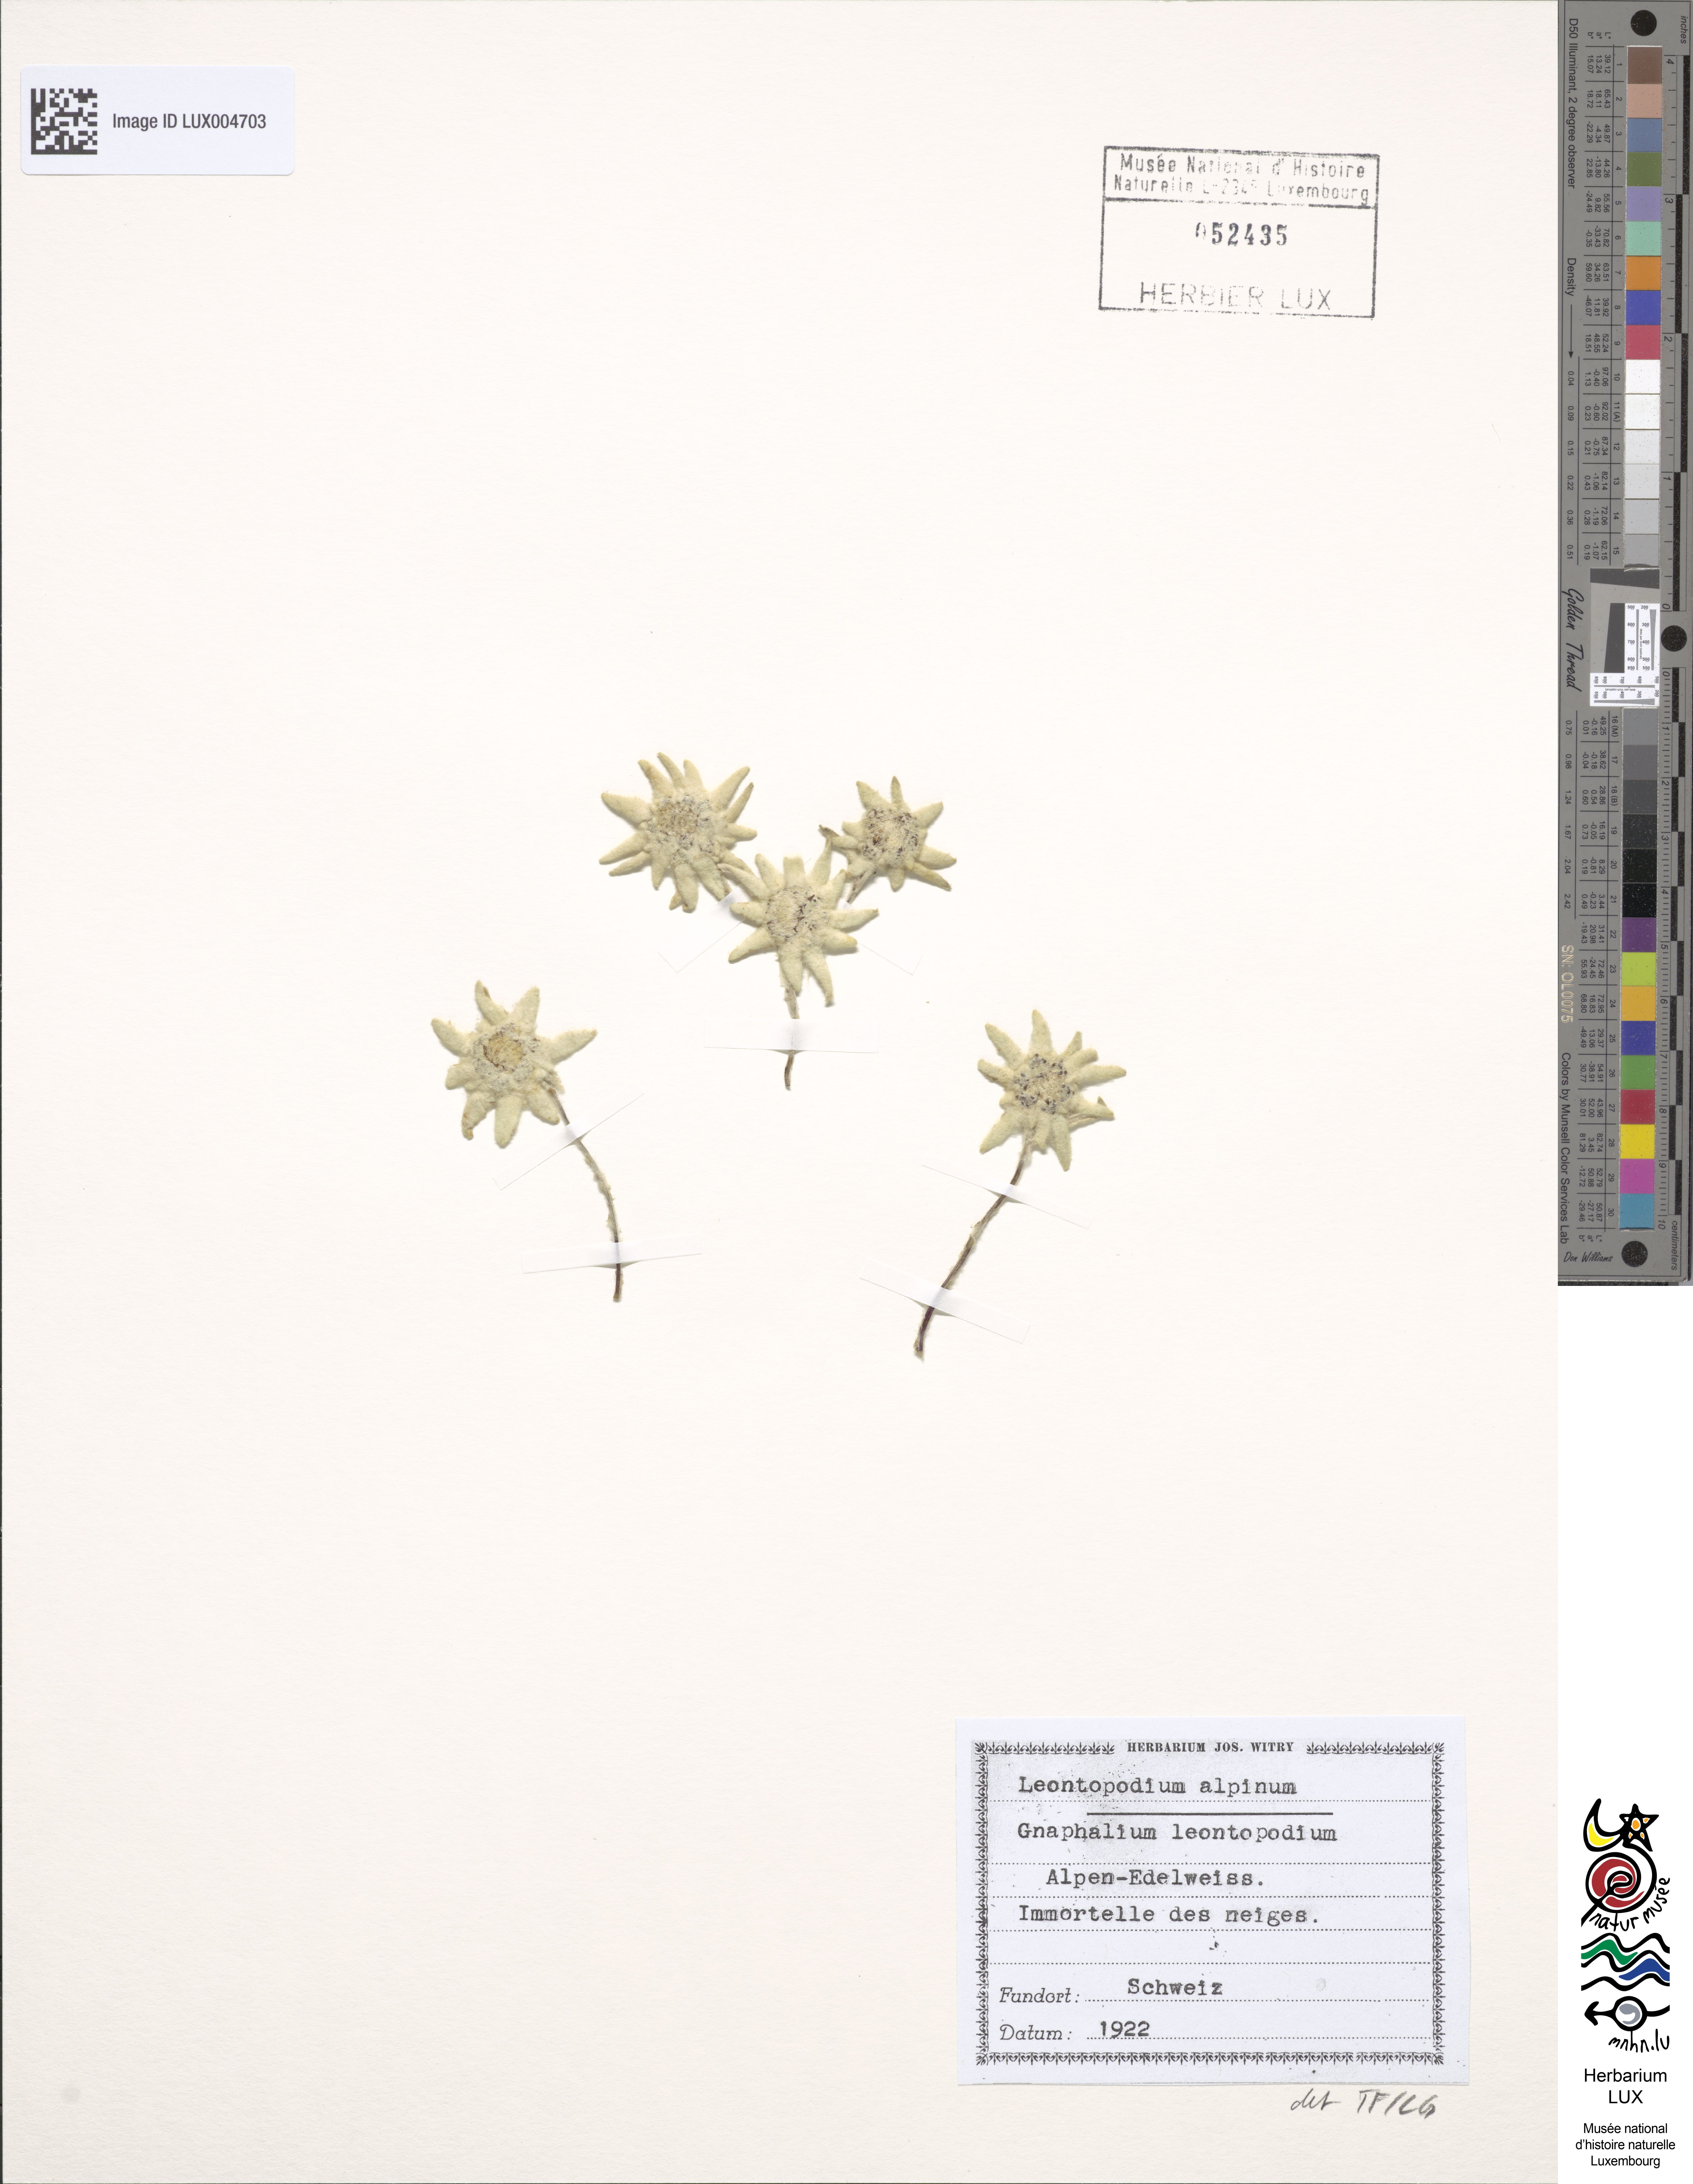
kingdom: Plantae
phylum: Tracheophyta
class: Magnoliopsida
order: Asterales
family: Asteraceae
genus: Leontopodium
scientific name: Leontopodium nivale
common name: Edelweiss
